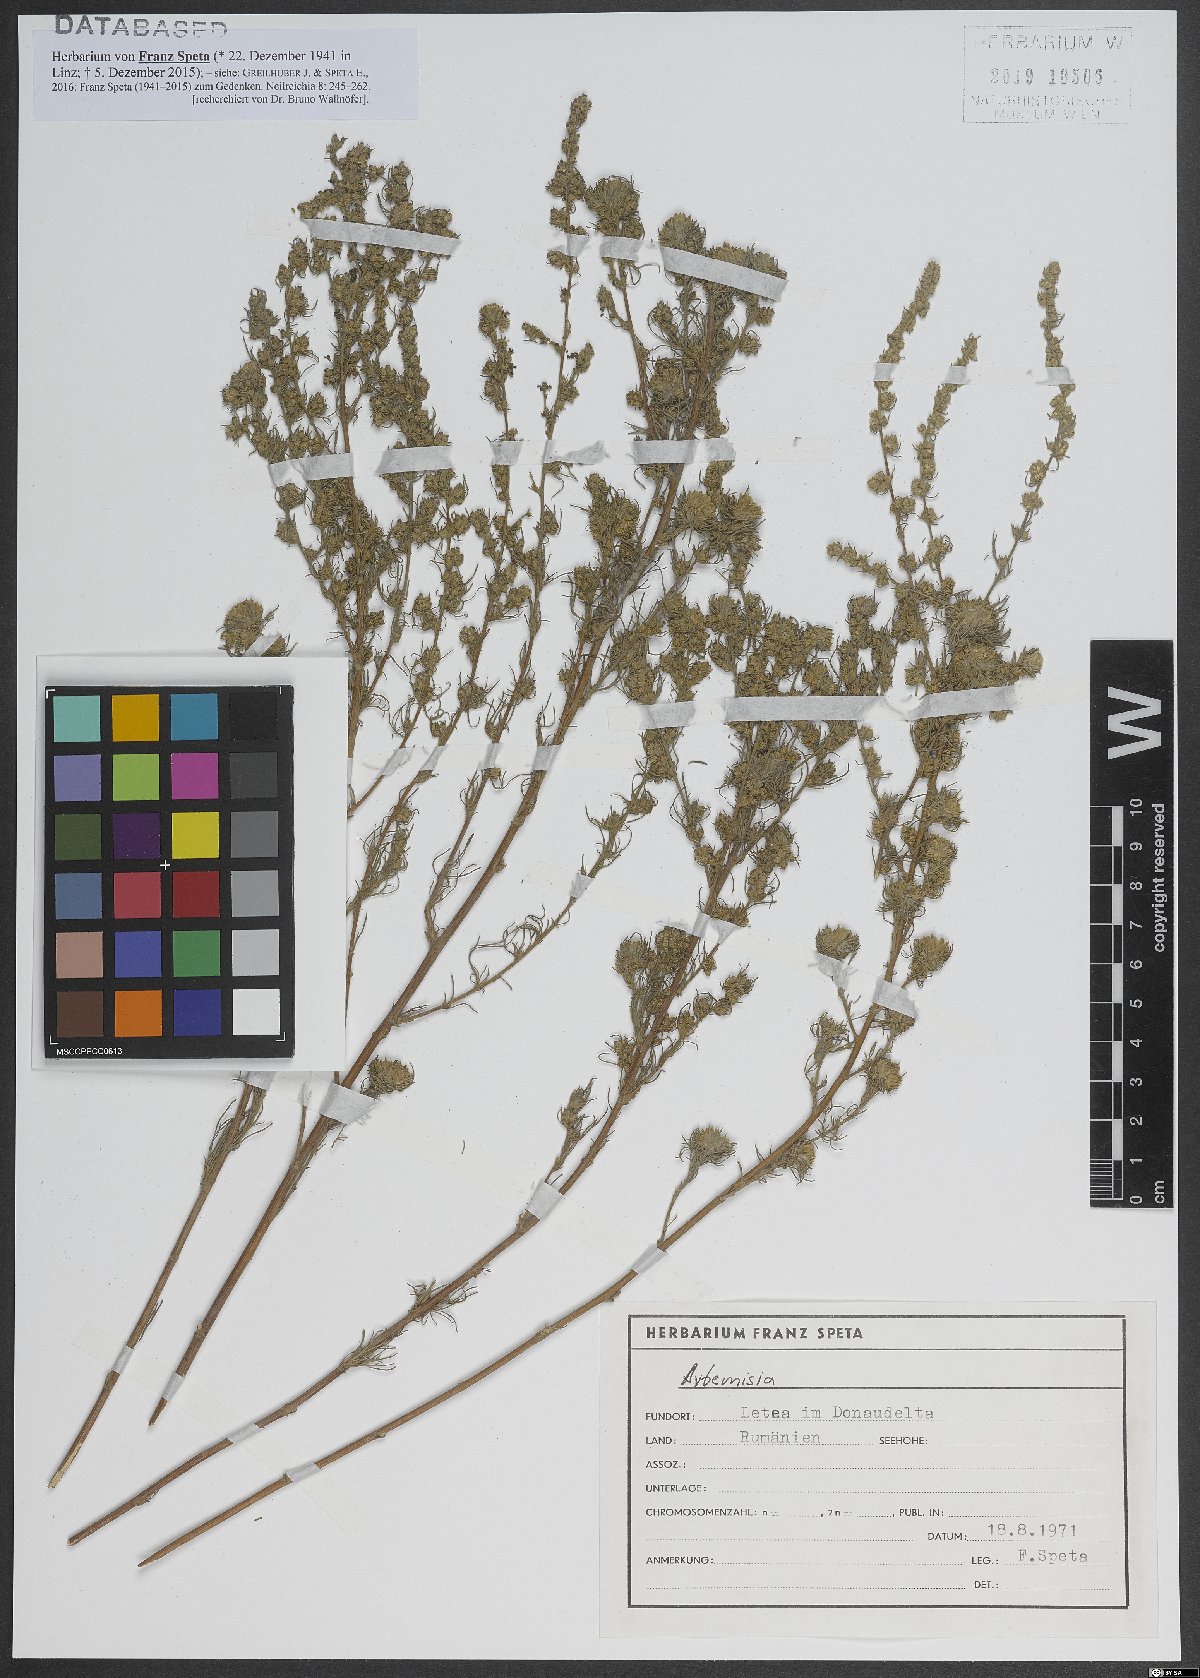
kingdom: Plantae
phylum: Tracheophyta
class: Magnoliopsida
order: Asterales
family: Asteraceae
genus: Artemisia
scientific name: Artemisia
